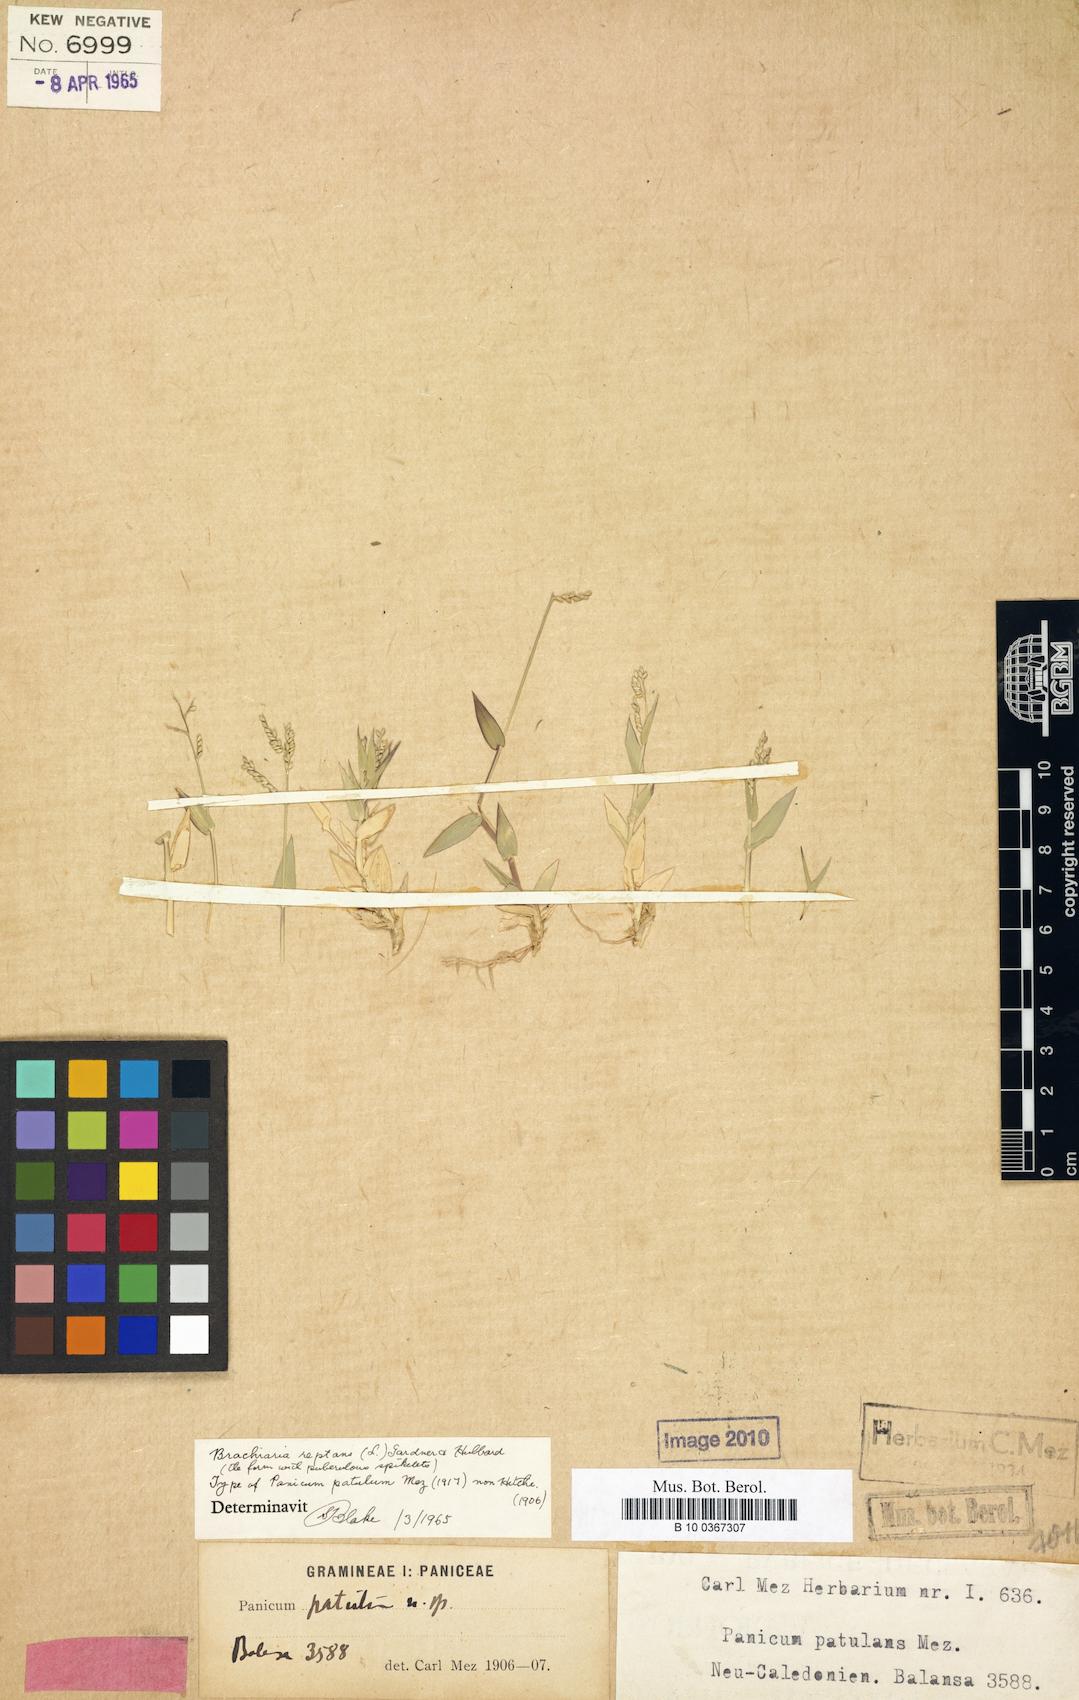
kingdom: Plantae
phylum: Tracheophyta
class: Liliopsida
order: Poales
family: Poaceae
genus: Urochloa
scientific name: Urochloa reptans
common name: Sprawling signalgrass
